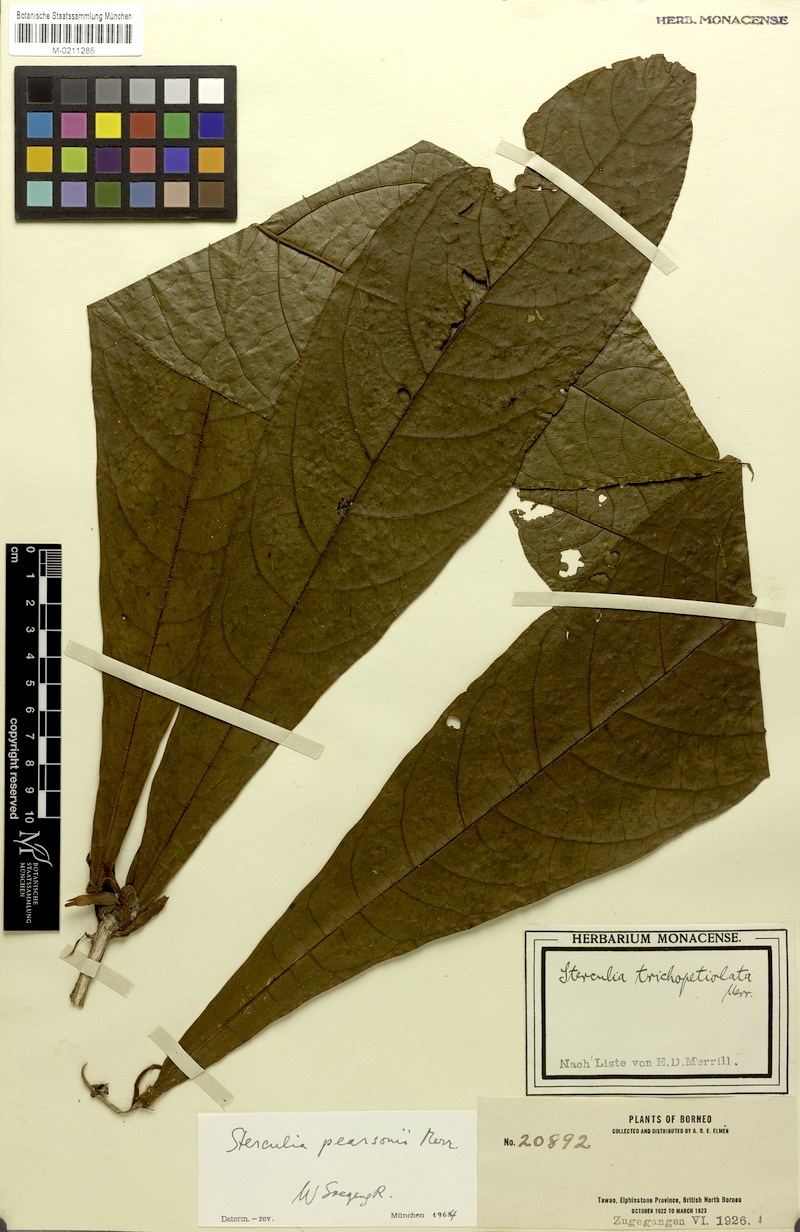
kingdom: Plantae
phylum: Tracheophyta
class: Magnoliopsida
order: Malvales
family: Malvaceae
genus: Sterculia
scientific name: Sterculia stipulata
